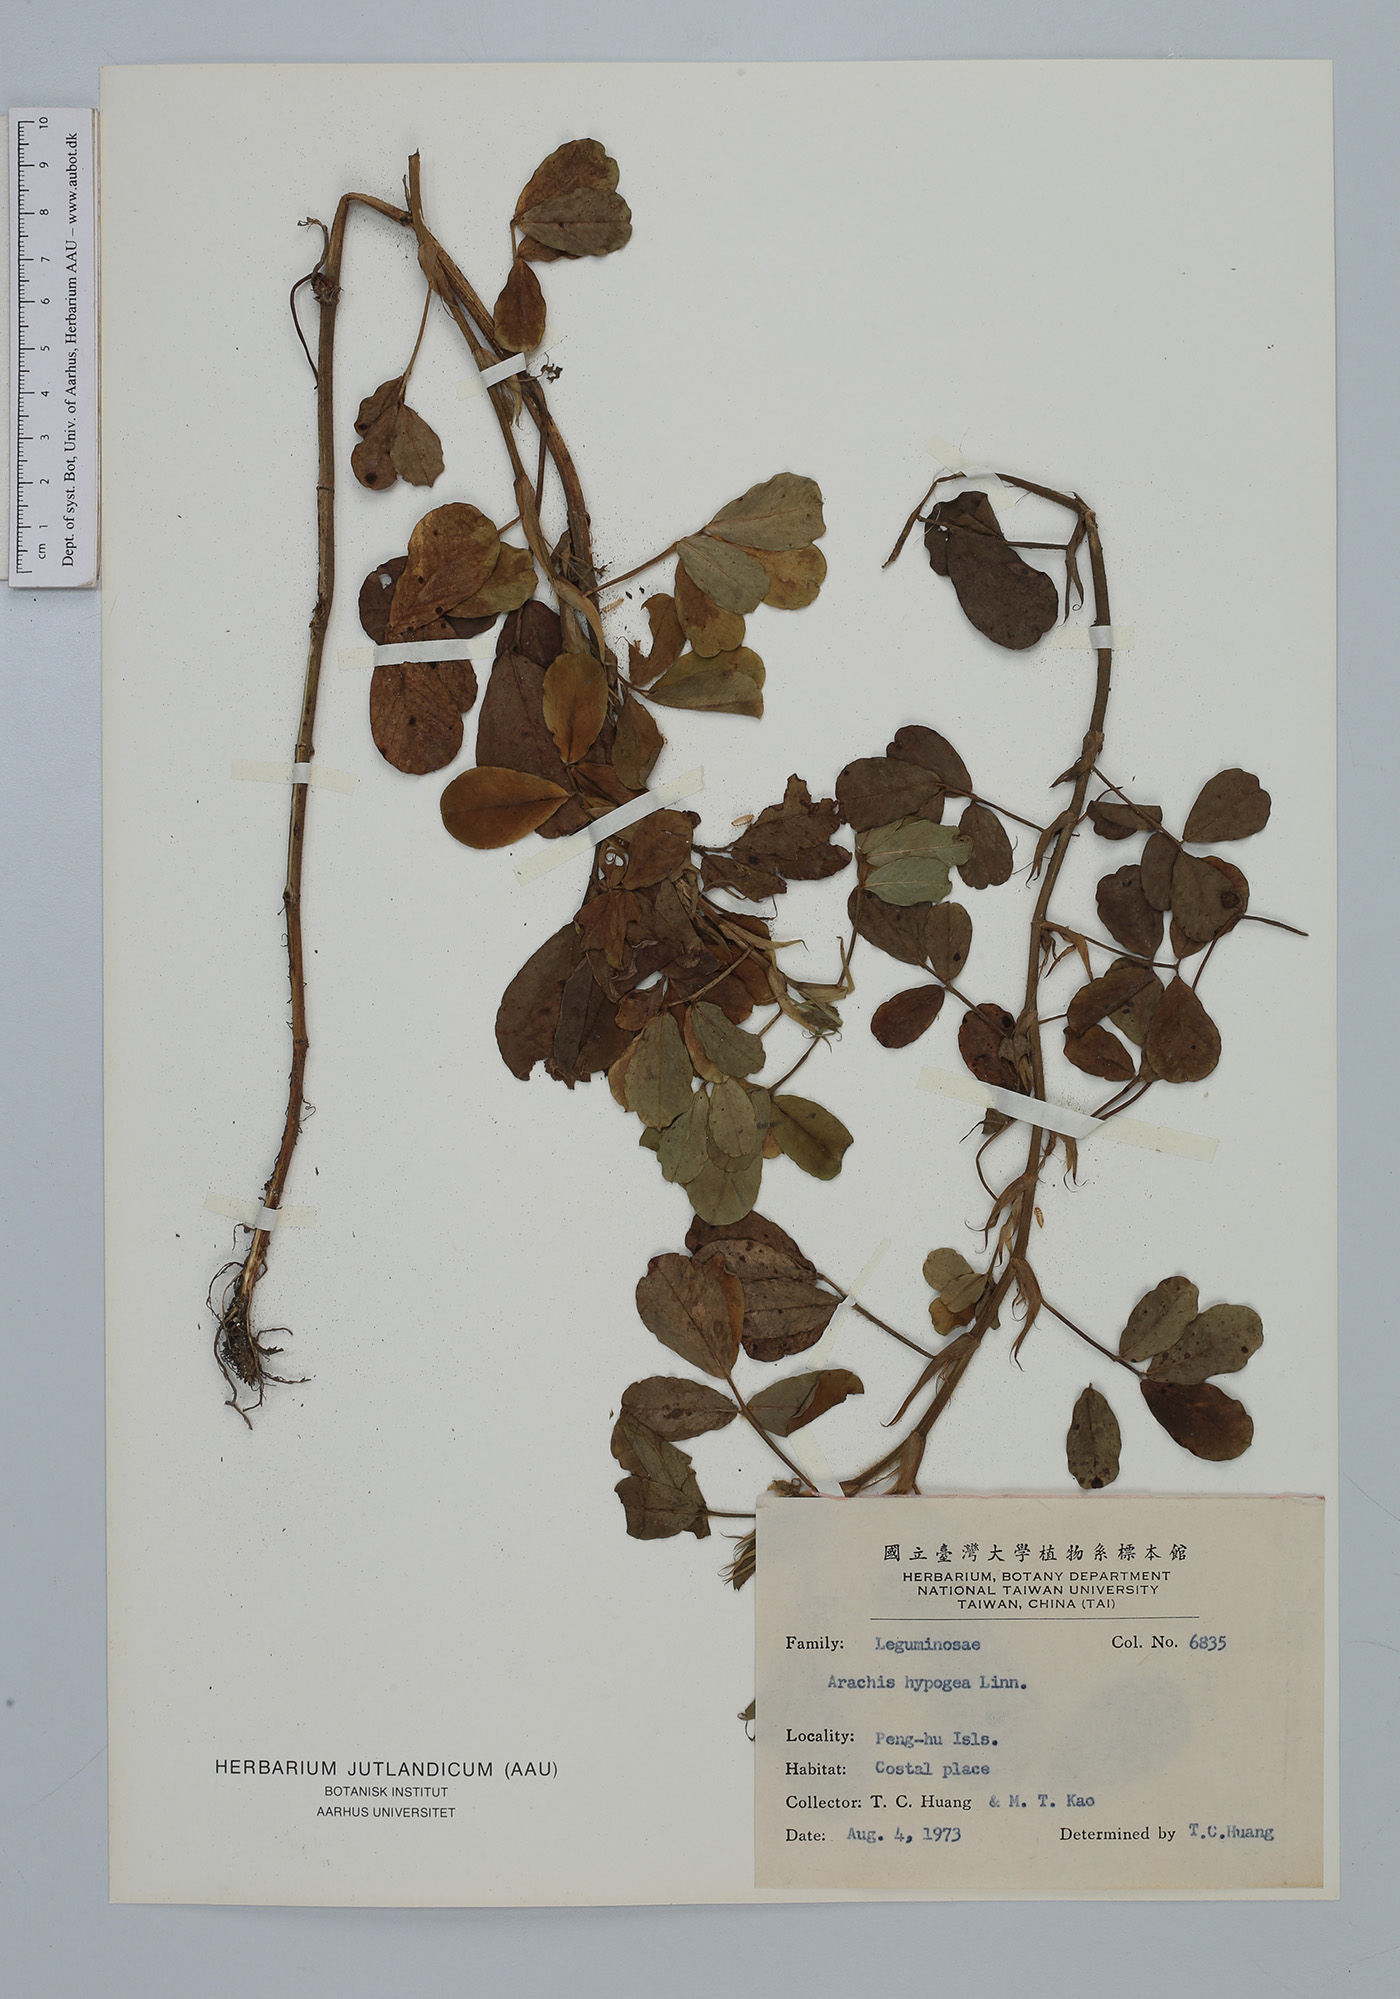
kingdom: Plantae
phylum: Tracheophyta
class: Magnoliopsida
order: Fabales
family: Fabaceae
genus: Arachis
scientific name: Arachis hypogaea
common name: Peanut
